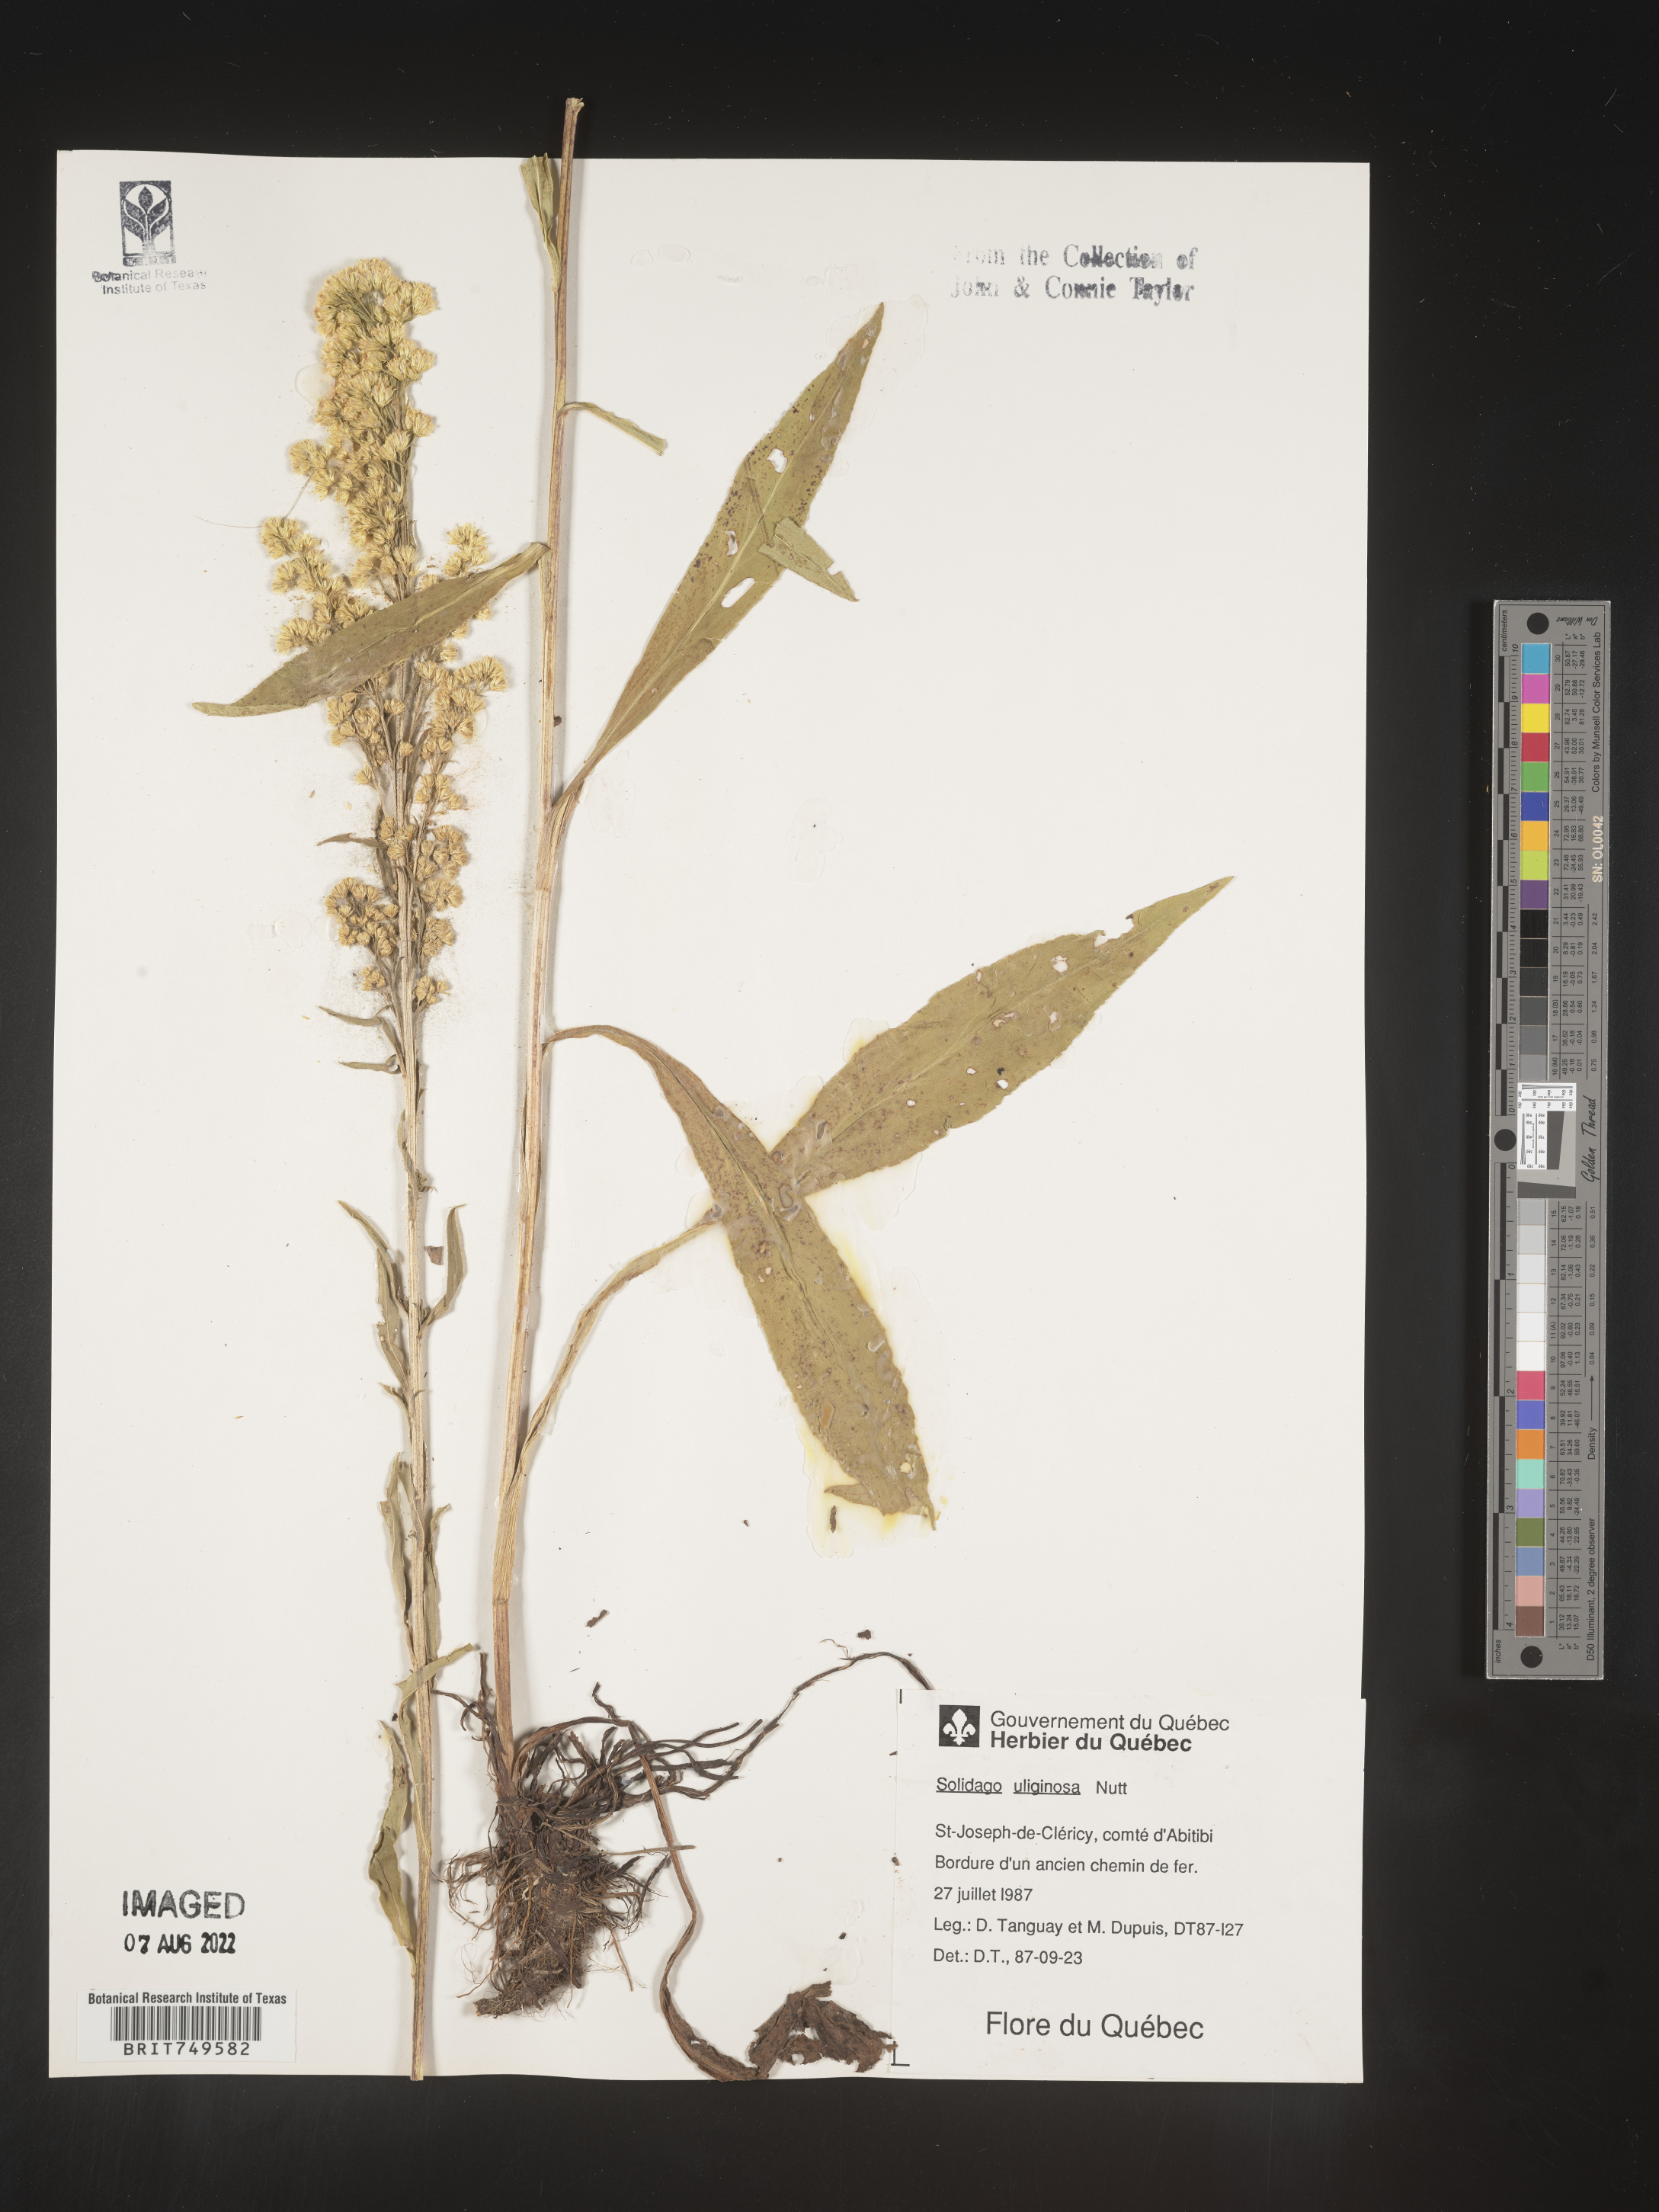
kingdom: Plantae
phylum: Tracheophyta
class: Magnoliopsida
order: Asterales
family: Asteraceae
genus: Solidago
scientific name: Solidago uliginosa
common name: Bog goldenrod
